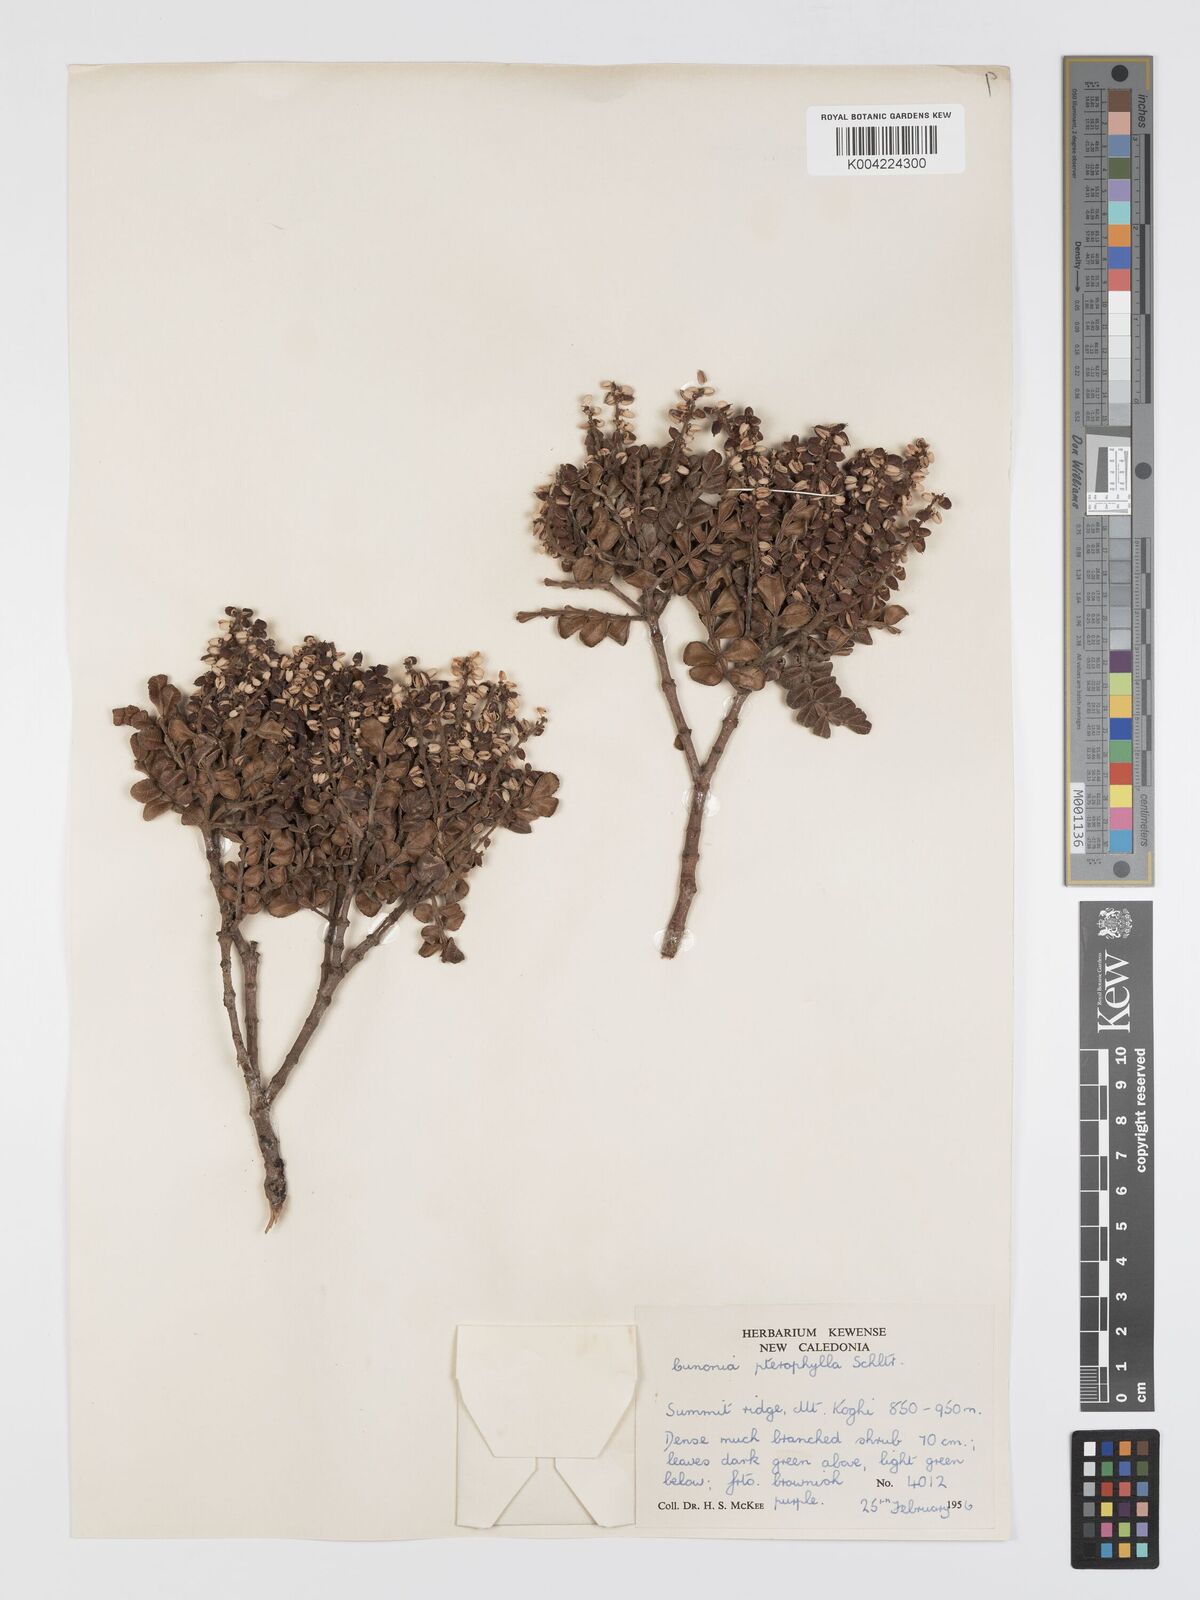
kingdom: Plantae
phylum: Tracheophyta
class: Magnoliopsida
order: Oxalidales
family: Cunoniaceae
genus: Cunonia
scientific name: Cunonia pterophylla
